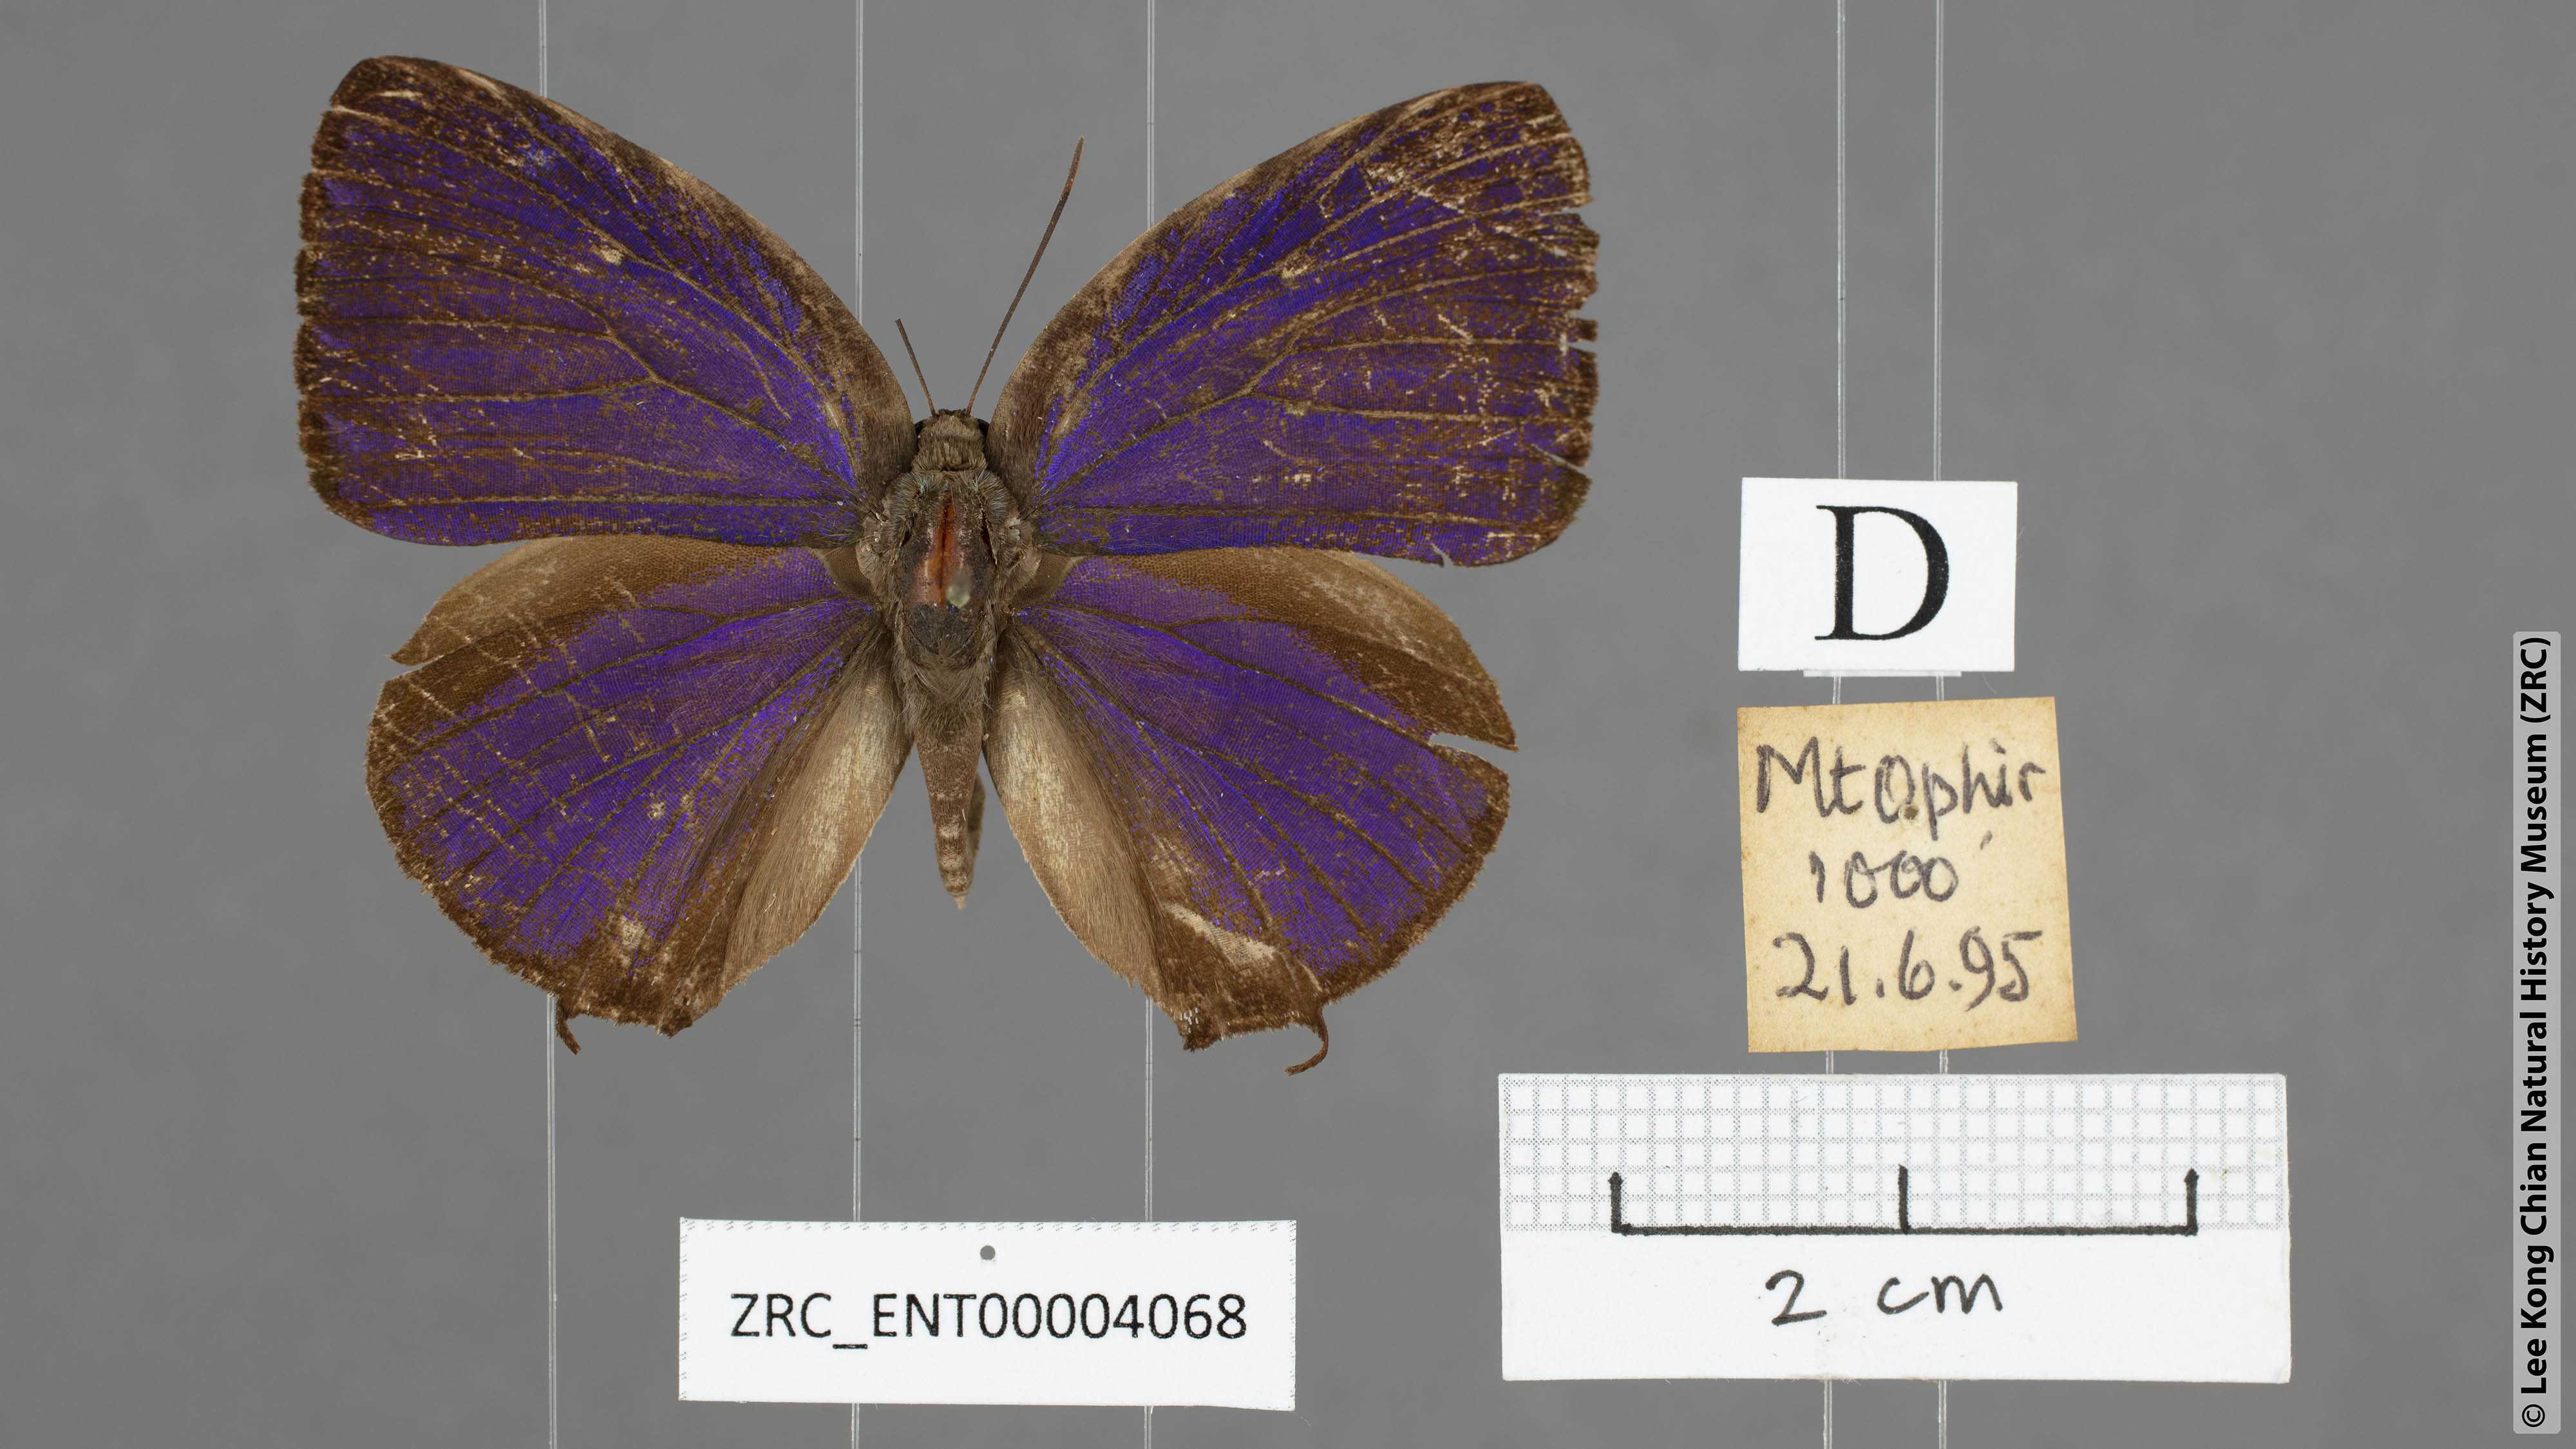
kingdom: Animalia
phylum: Arthropoda
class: Insecta
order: Lepidoptera
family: Lycaenidae
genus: Arhopala
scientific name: Arhopala zambra
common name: Zambra oakblue
